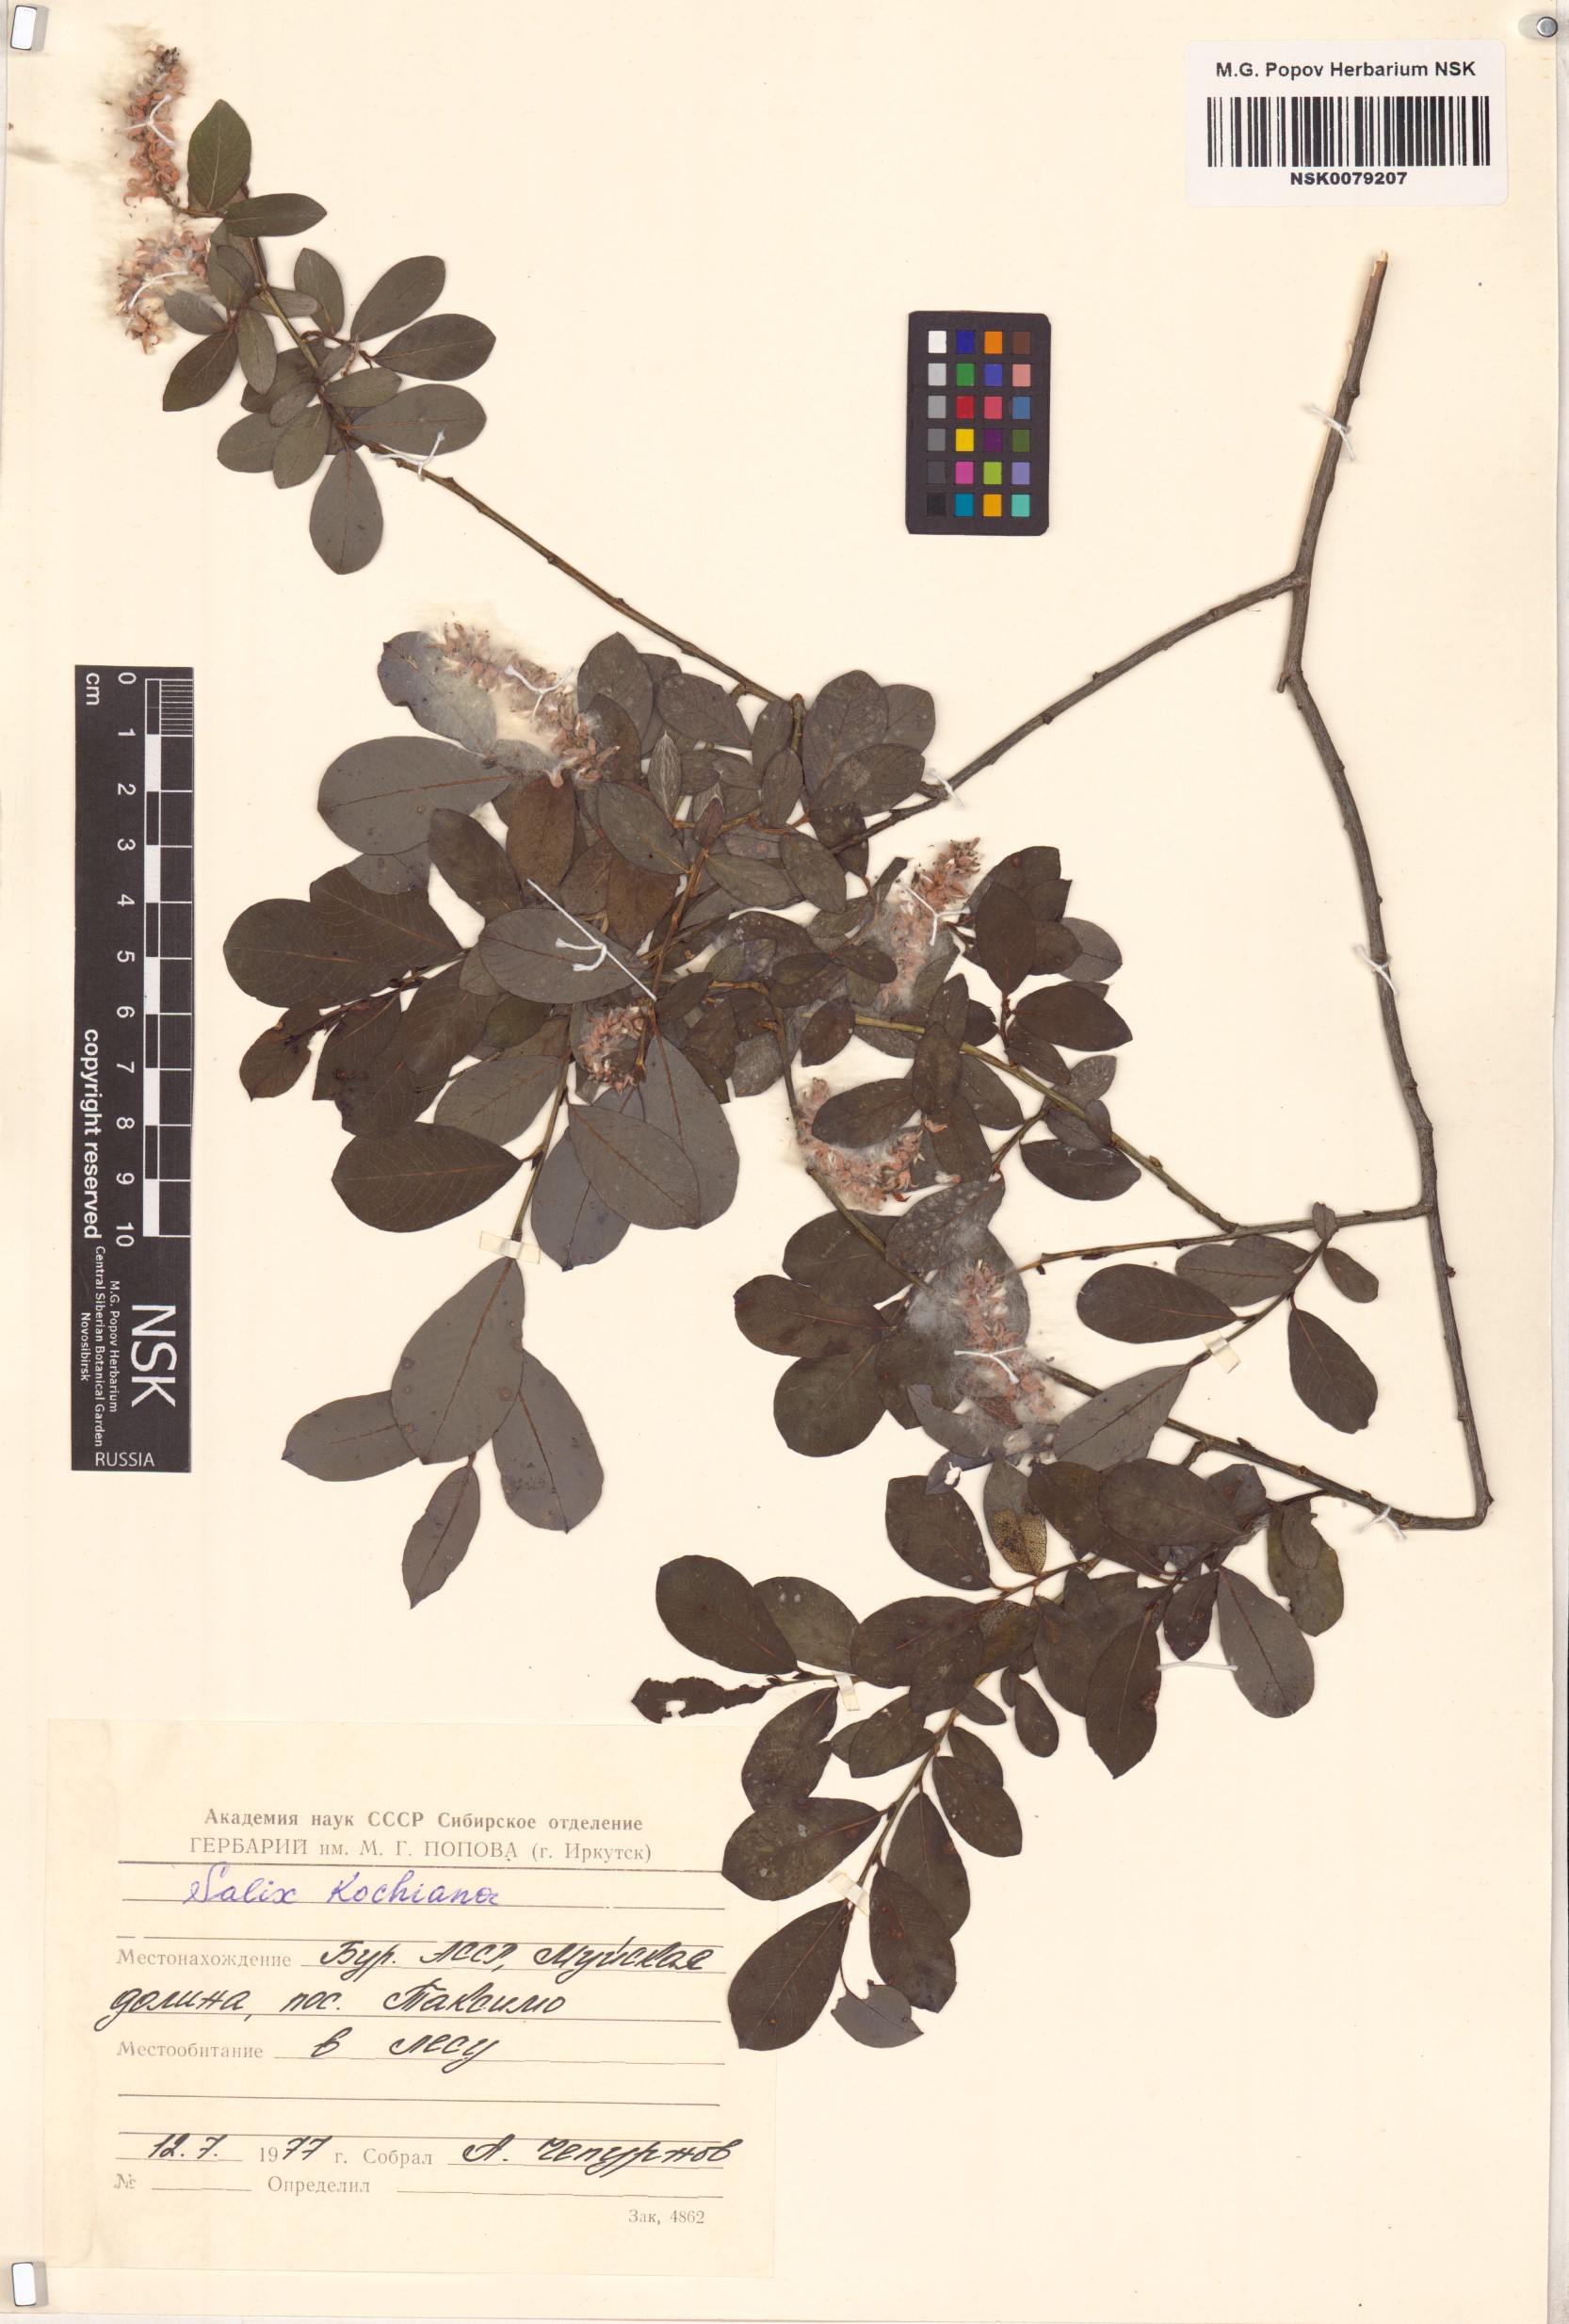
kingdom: Plantae
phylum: Tracheophyta
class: Magnoliopsida
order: Malpighiales
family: Salicaceae
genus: Salix
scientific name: Salix kochiana
